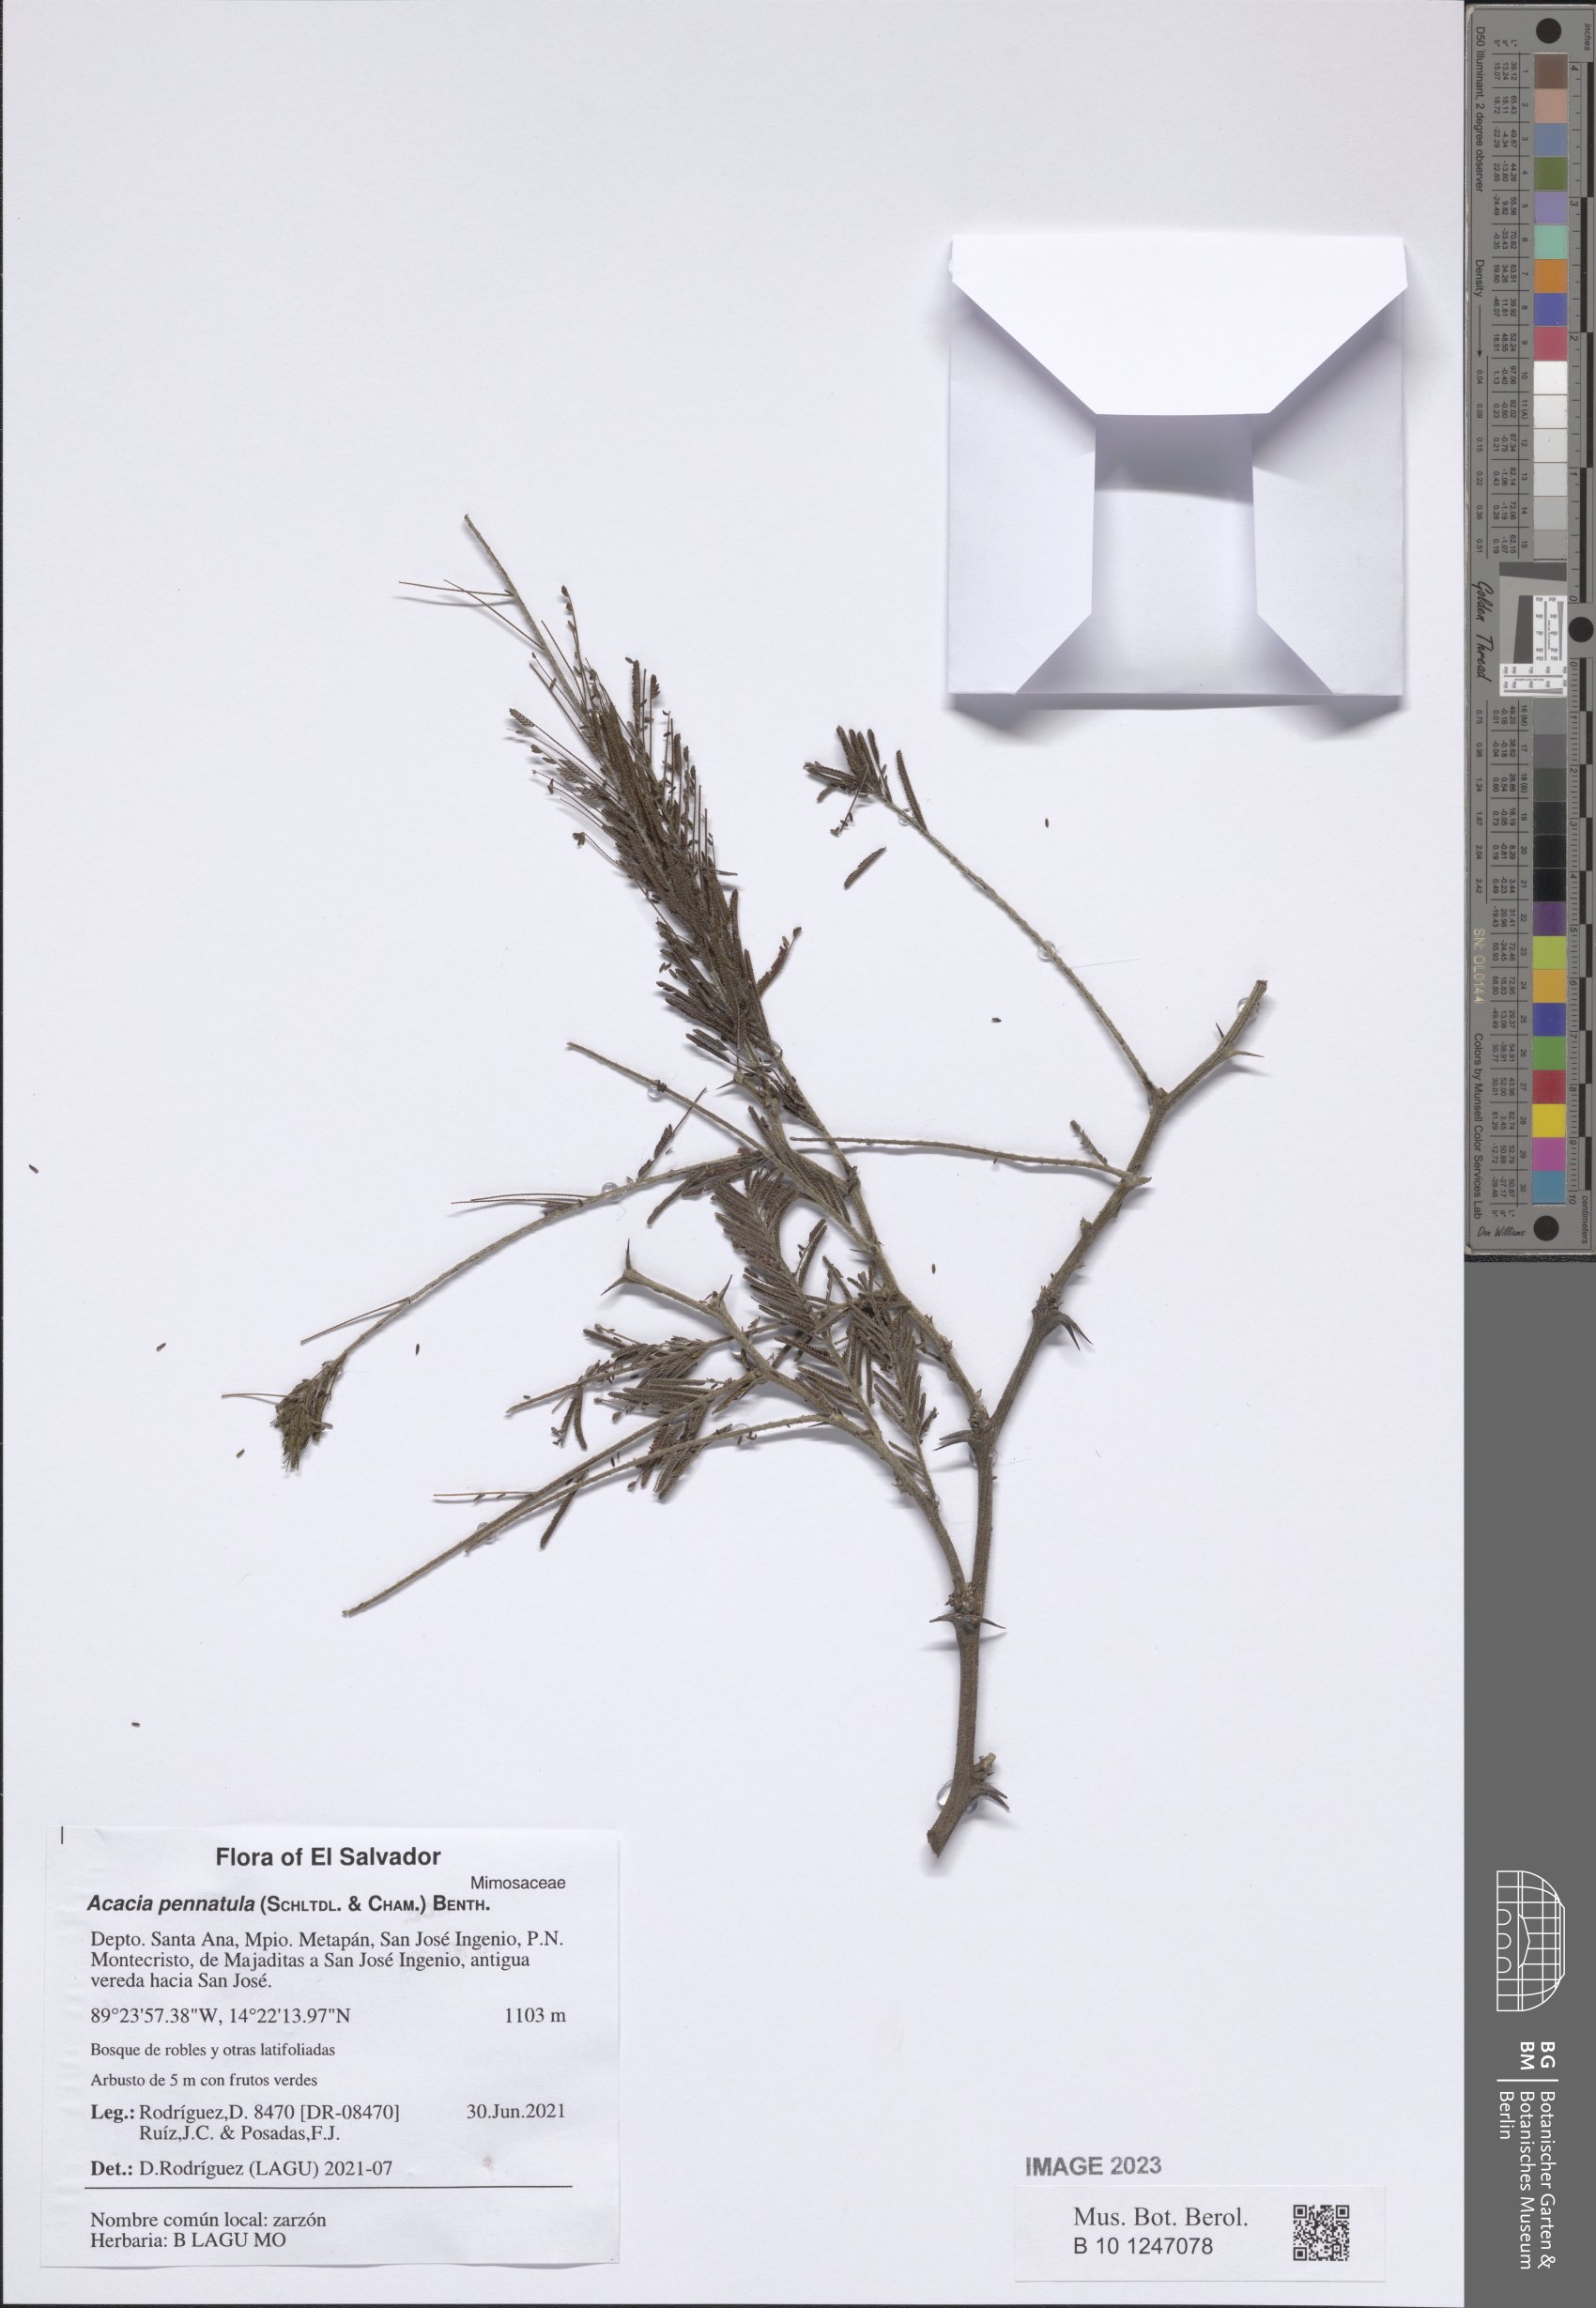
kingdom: Plantae
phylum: Tracheophyta
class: Magnoliopsida
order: Fabales
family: Fabaceae
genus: Vachellia
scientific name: Vachellia pennatula
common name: Fern-leaf acacia
